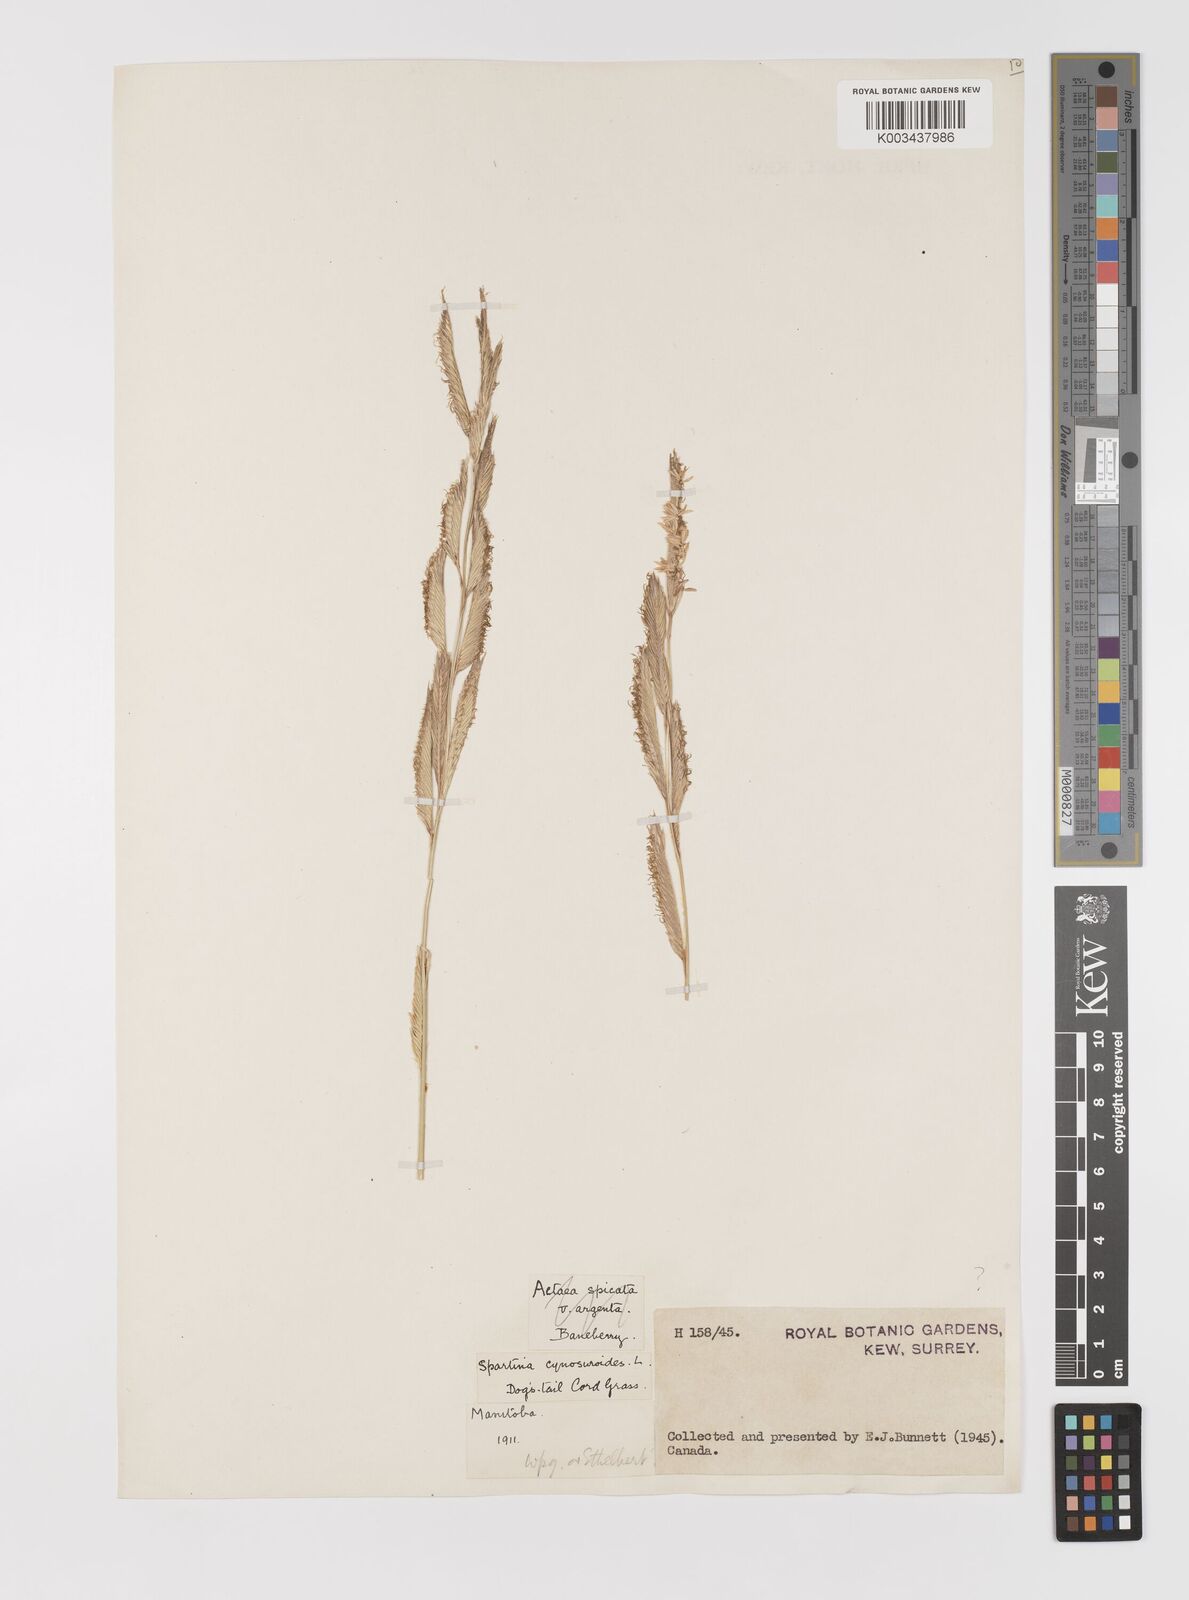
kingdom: Plantae
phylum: Tracheophyta
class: Liliopsida
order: Poales
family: Poaceae
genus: Sporobolus
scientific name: Sporobolus cynosuroides
